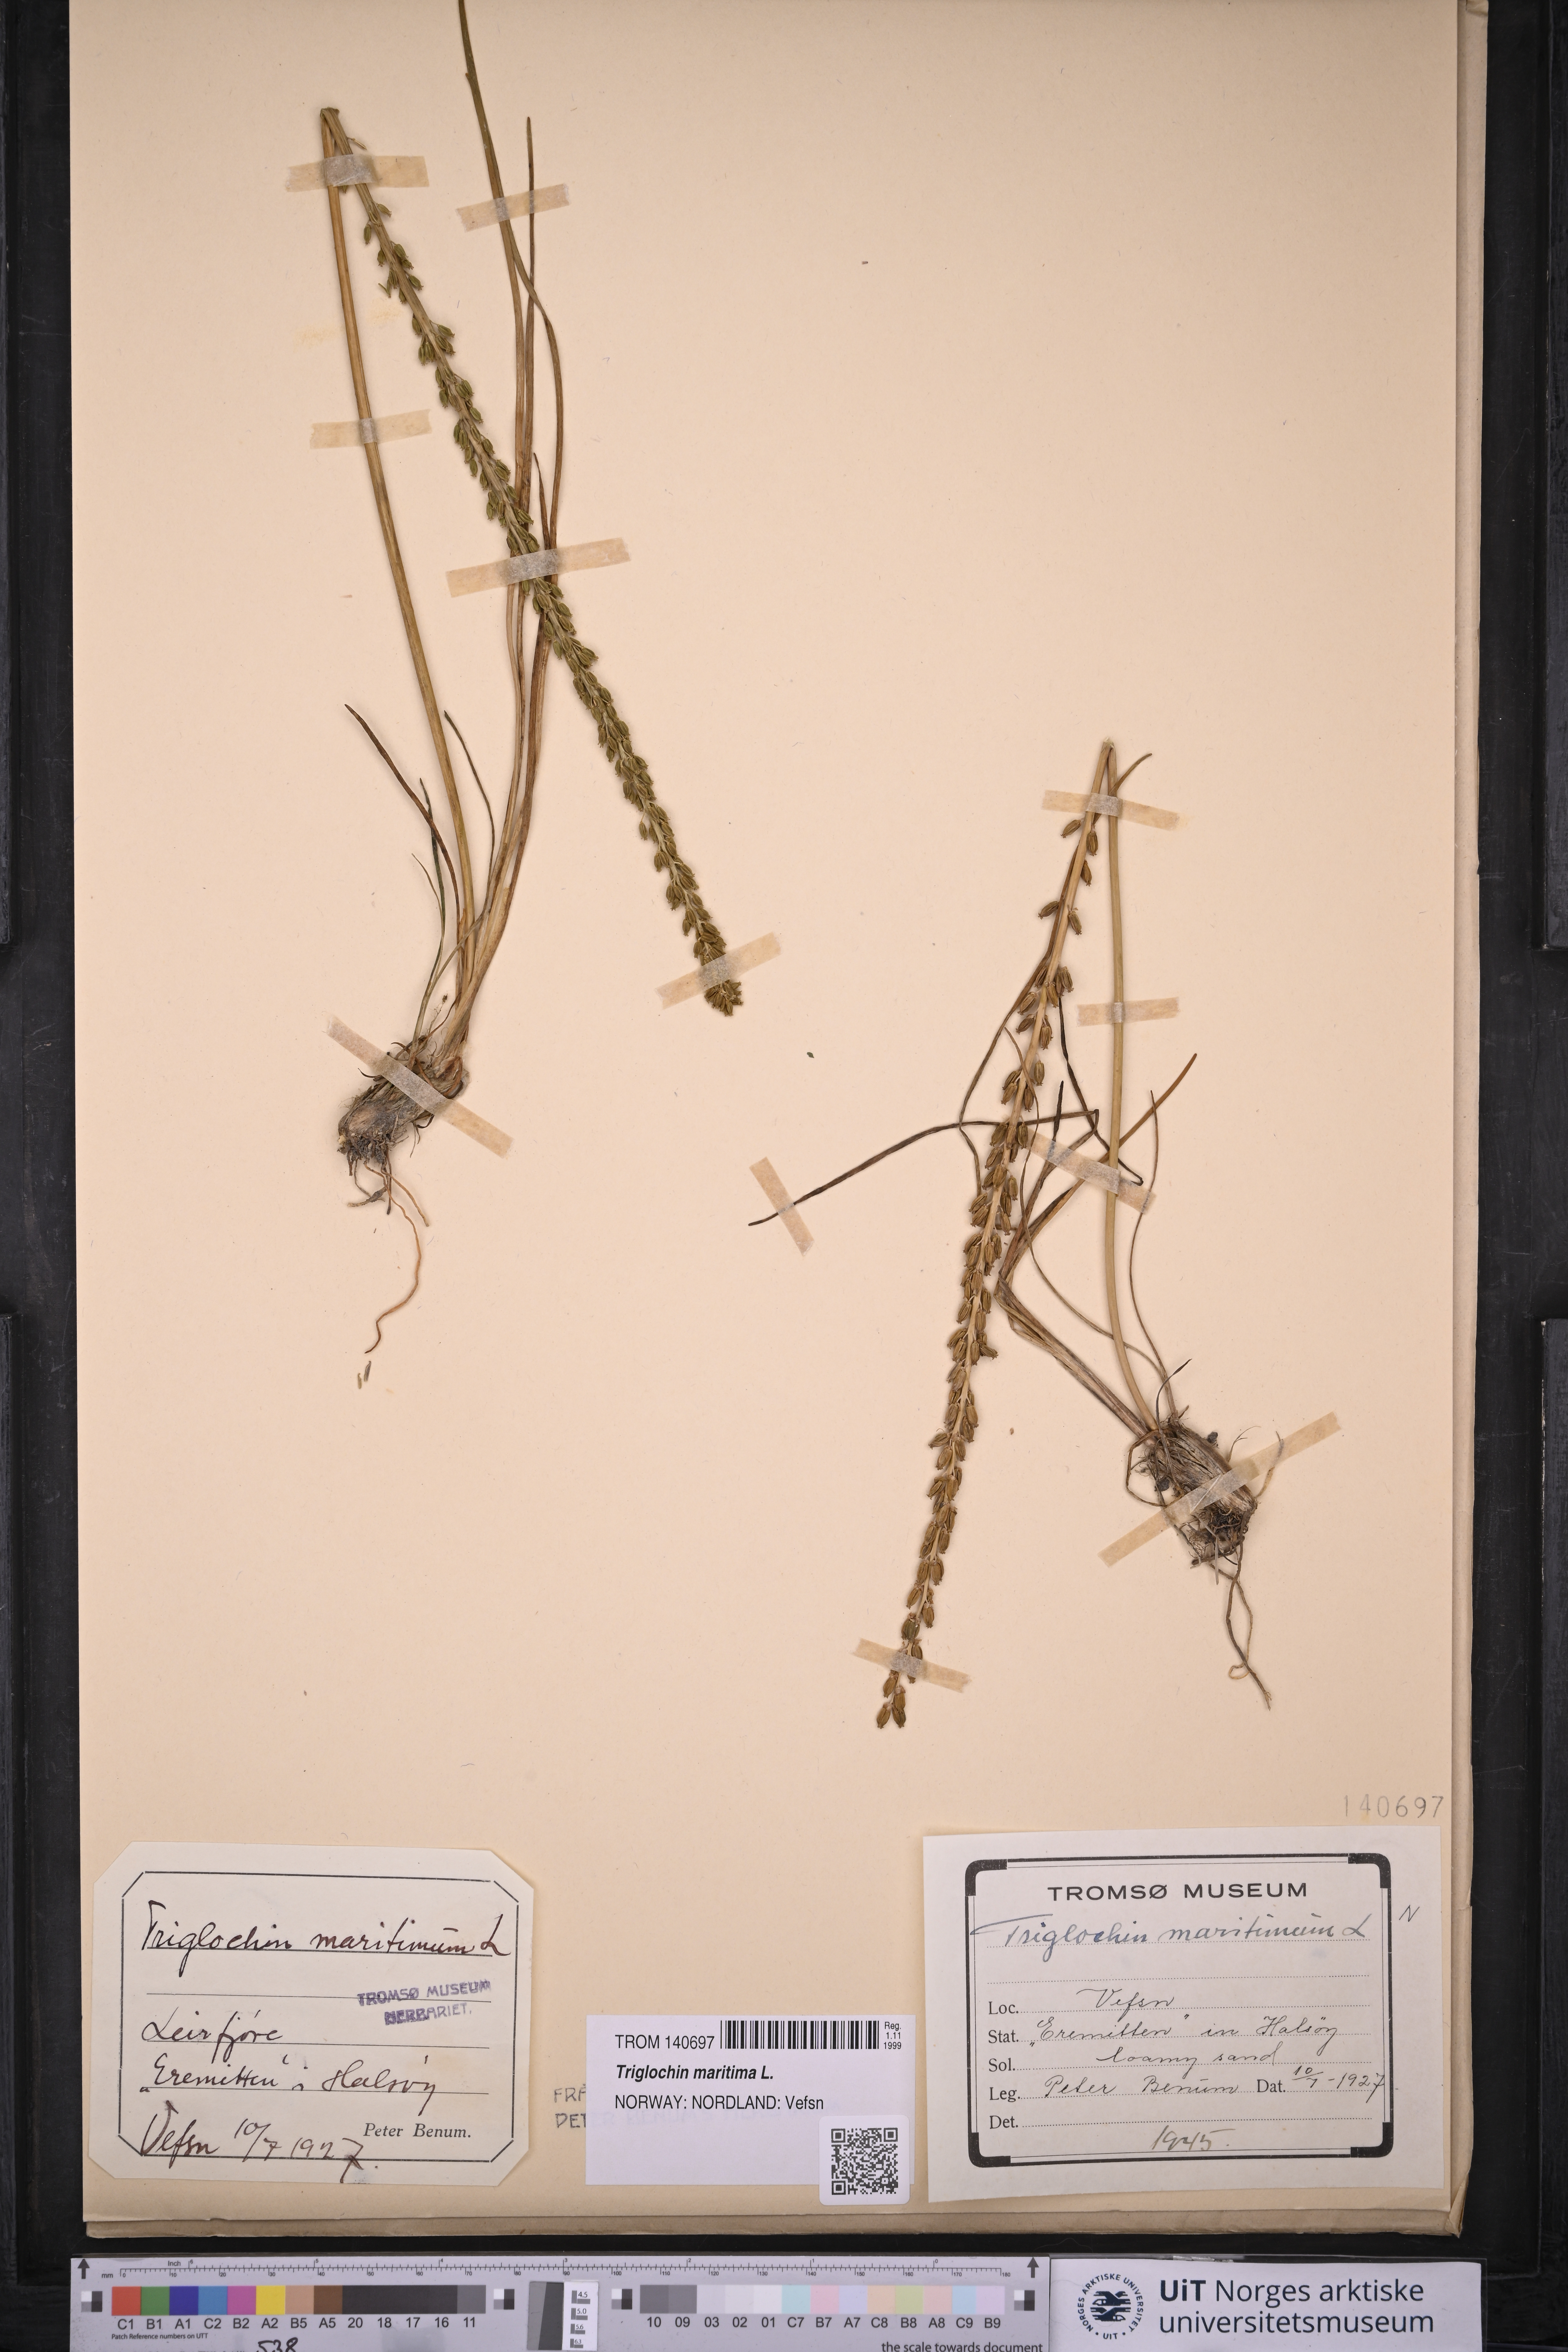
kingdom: Plantae
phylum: Tracheophyta
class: Liliopsida
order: Alismatales
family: Juncaginaceae
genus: Triglochin
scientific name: Triglochin maritima
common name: Sea arrowgrass
